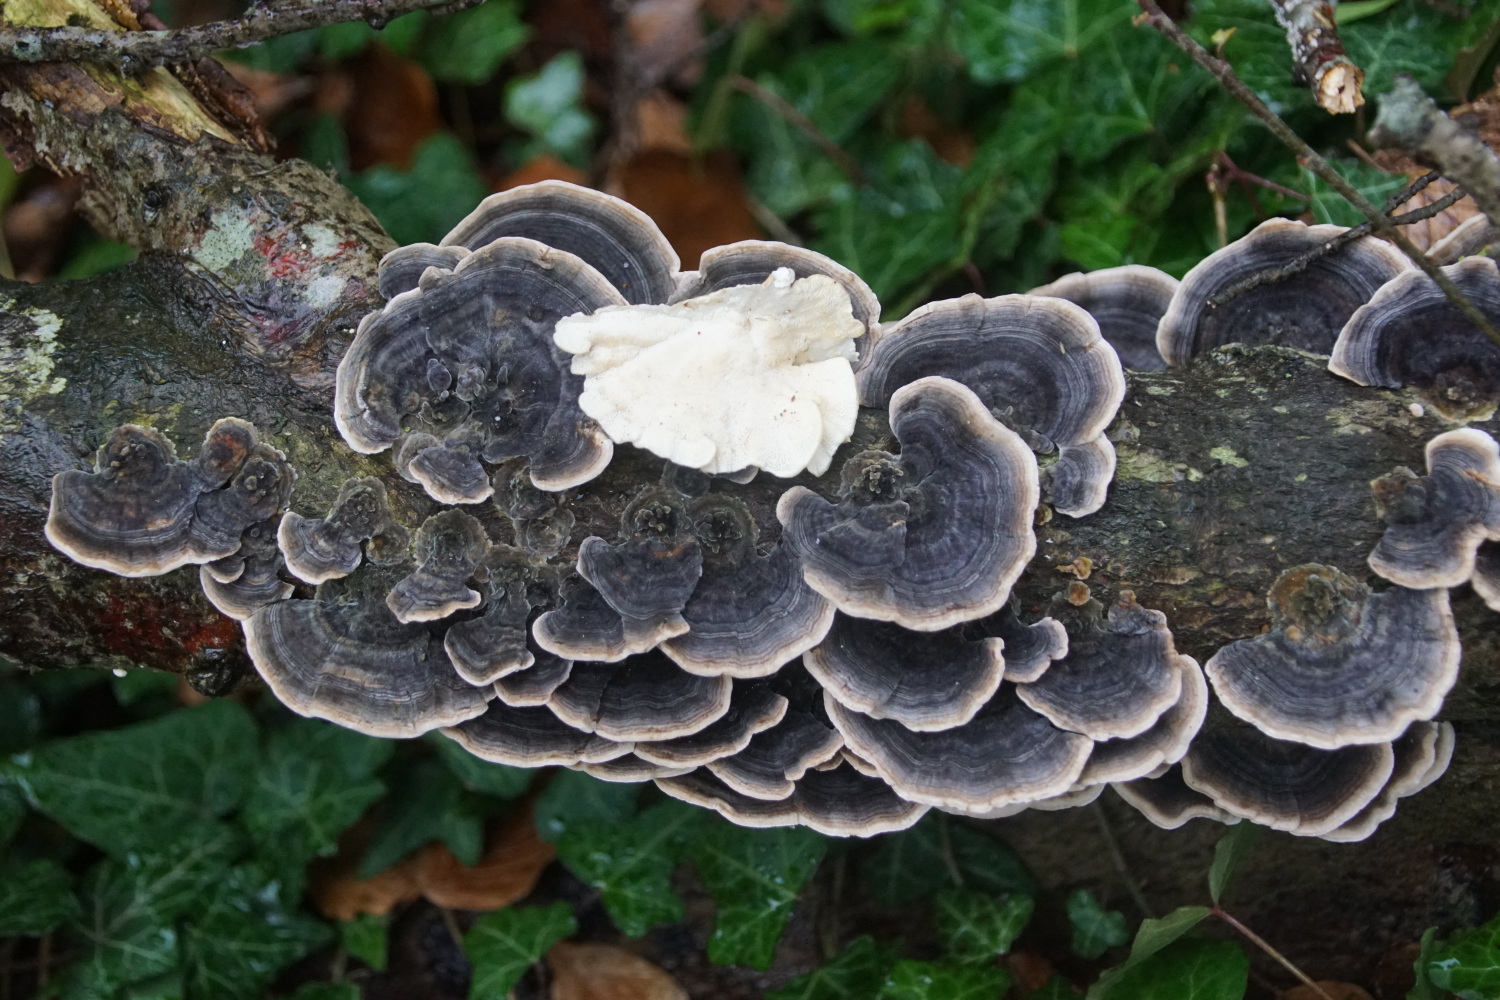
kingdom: Fungi
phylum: Basidiomycota
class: Agaricomycetes
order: Polyporales
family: Polyporaceae
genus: Trametes
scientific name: Trametes versicolor
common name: broget læderporesvamp
